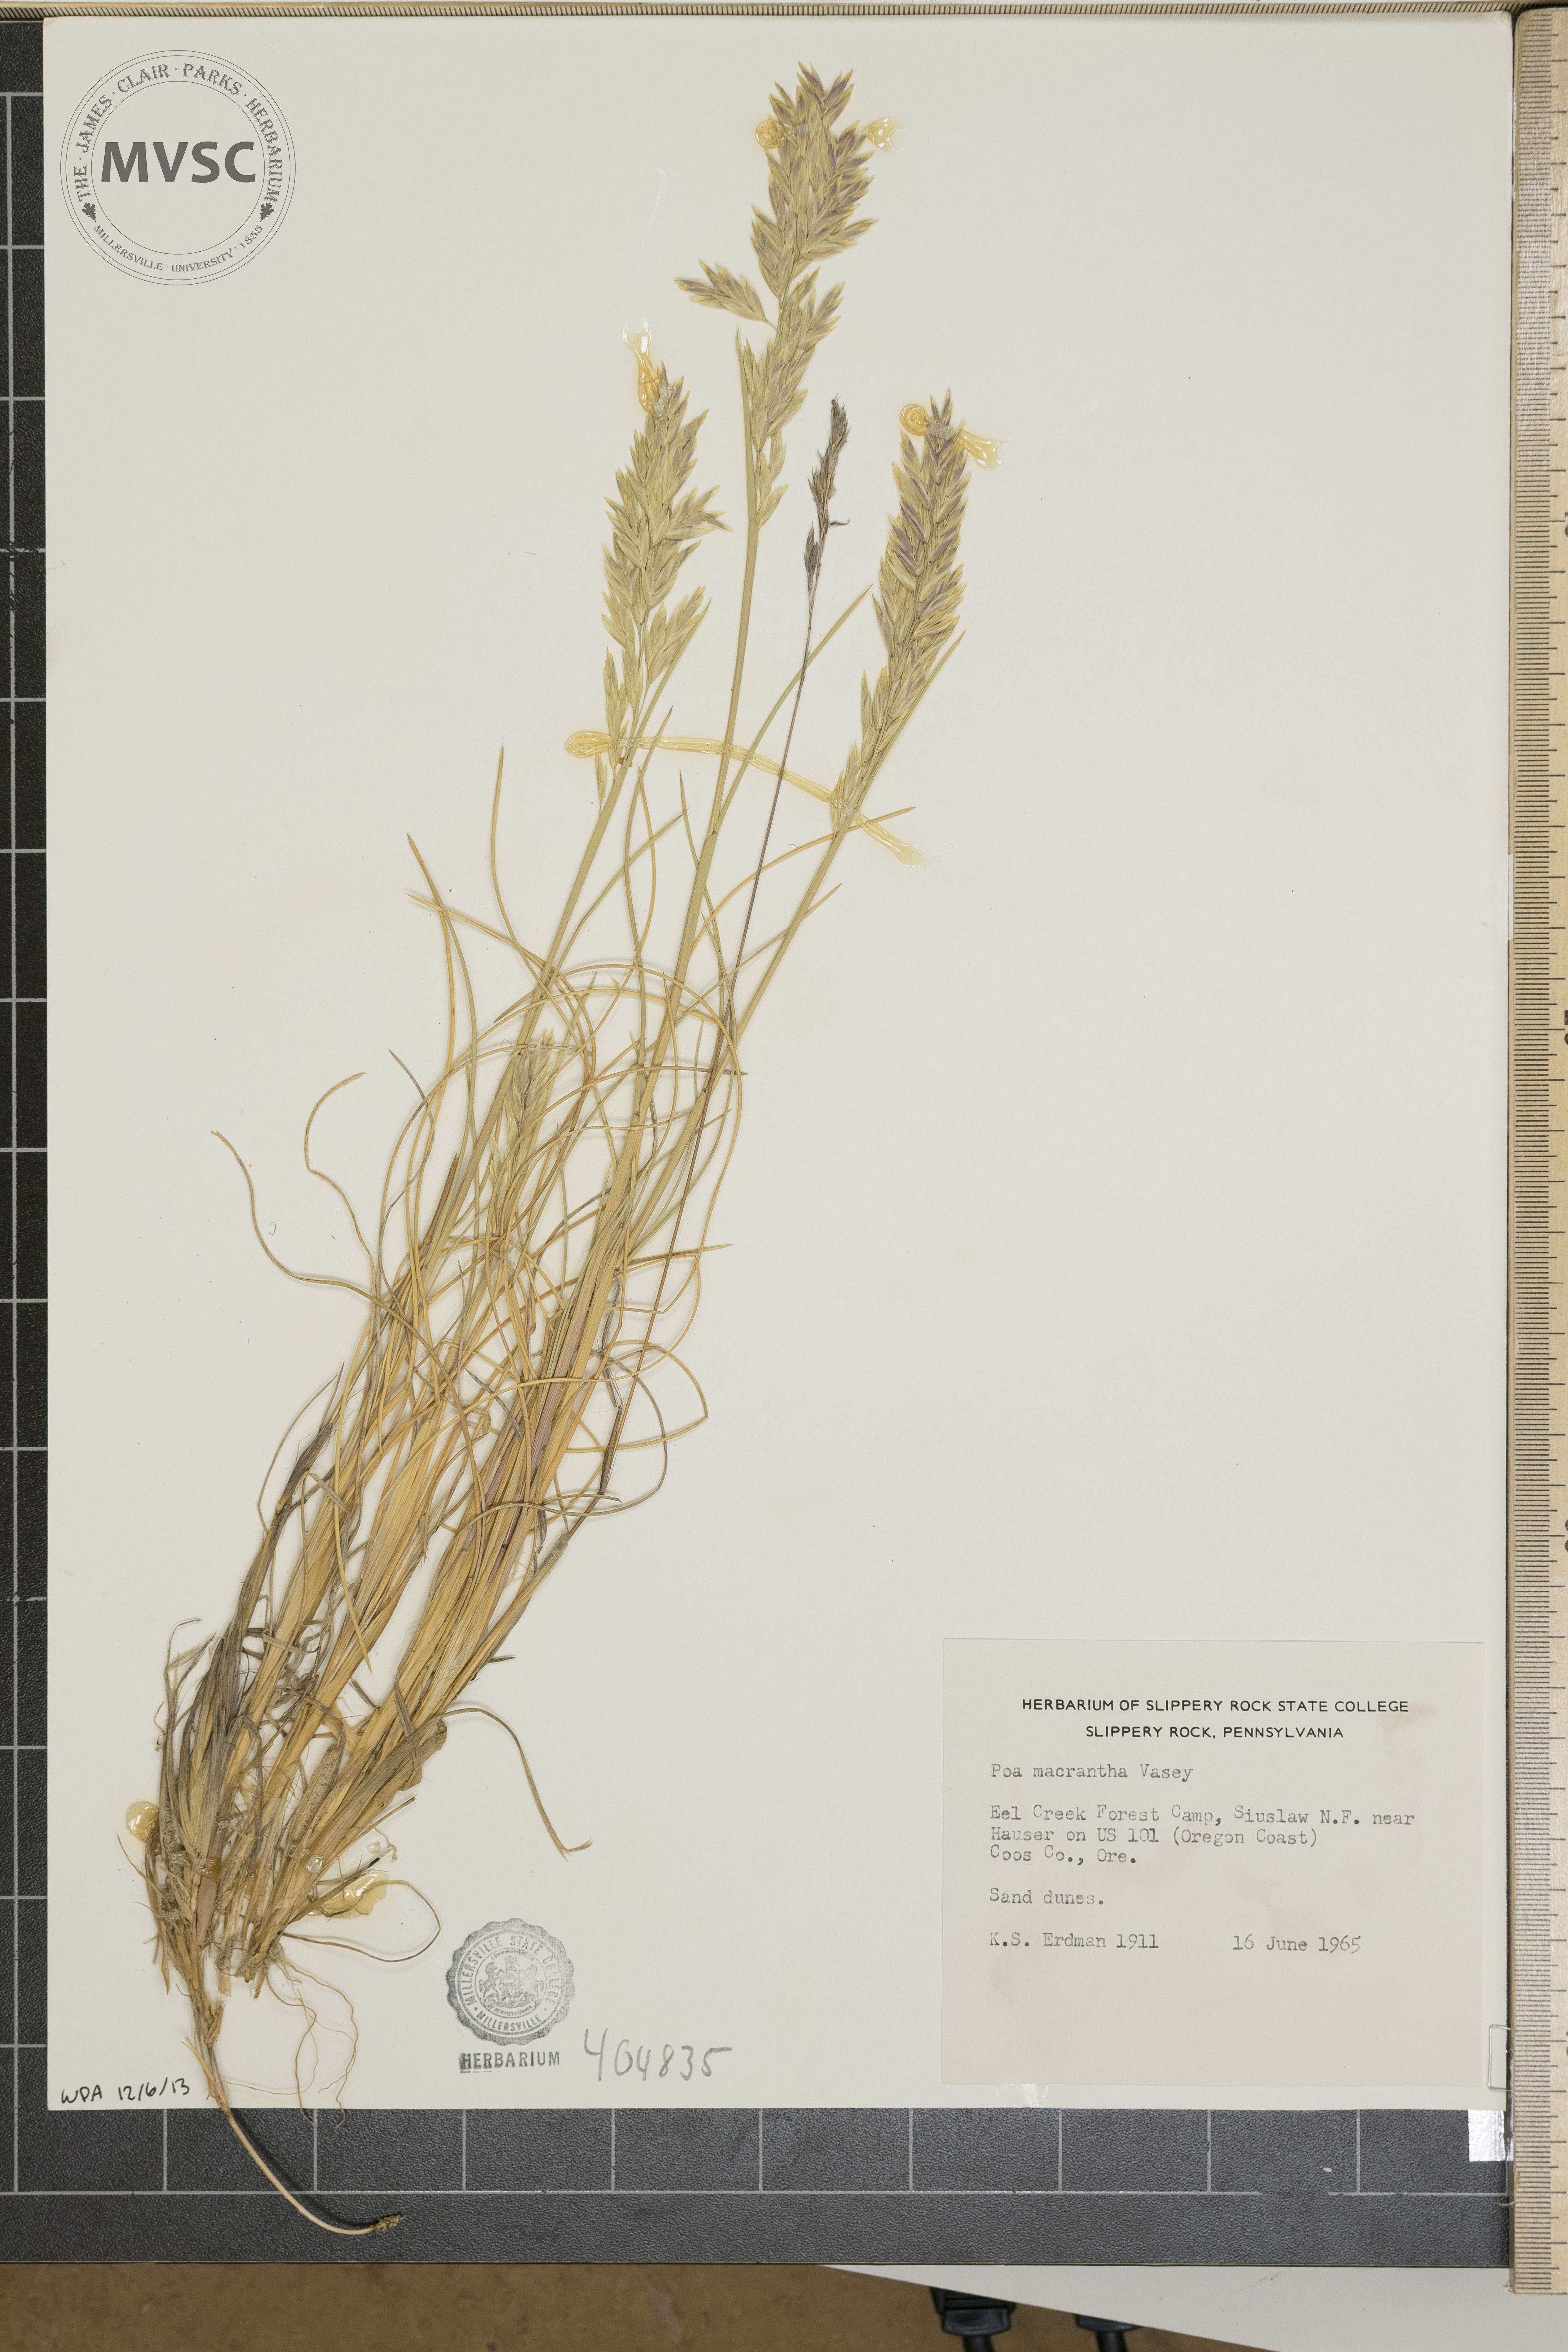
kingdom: Plantae
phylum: Tracheophyta
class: Liliopsida
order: Poales
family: Poaceae
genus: Poa
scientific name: Poa macrantha
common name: Dune bluegrass
